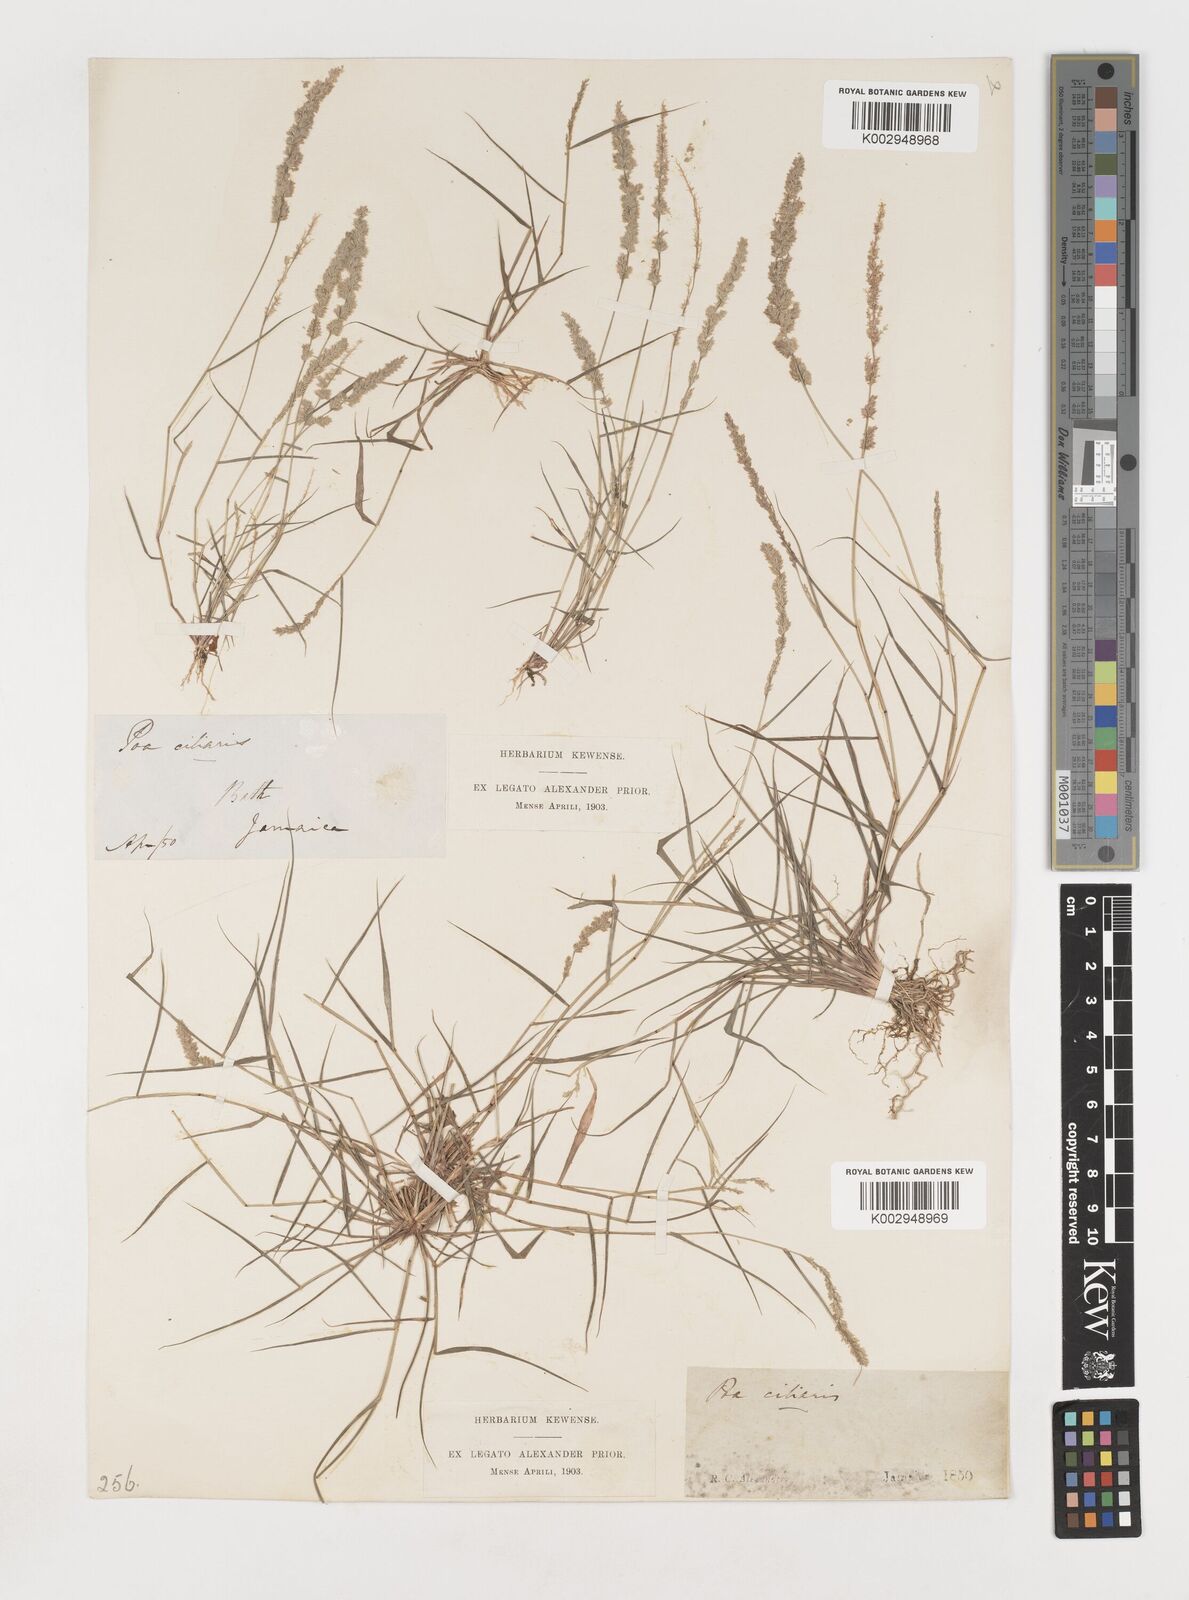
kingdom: Plantae
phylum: Tracheophyta
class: Liliopsida
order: Poales
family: Poaceae
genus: Eragrostis
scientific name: Eragrostis ciliaris
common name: Gophertail lovegrass
